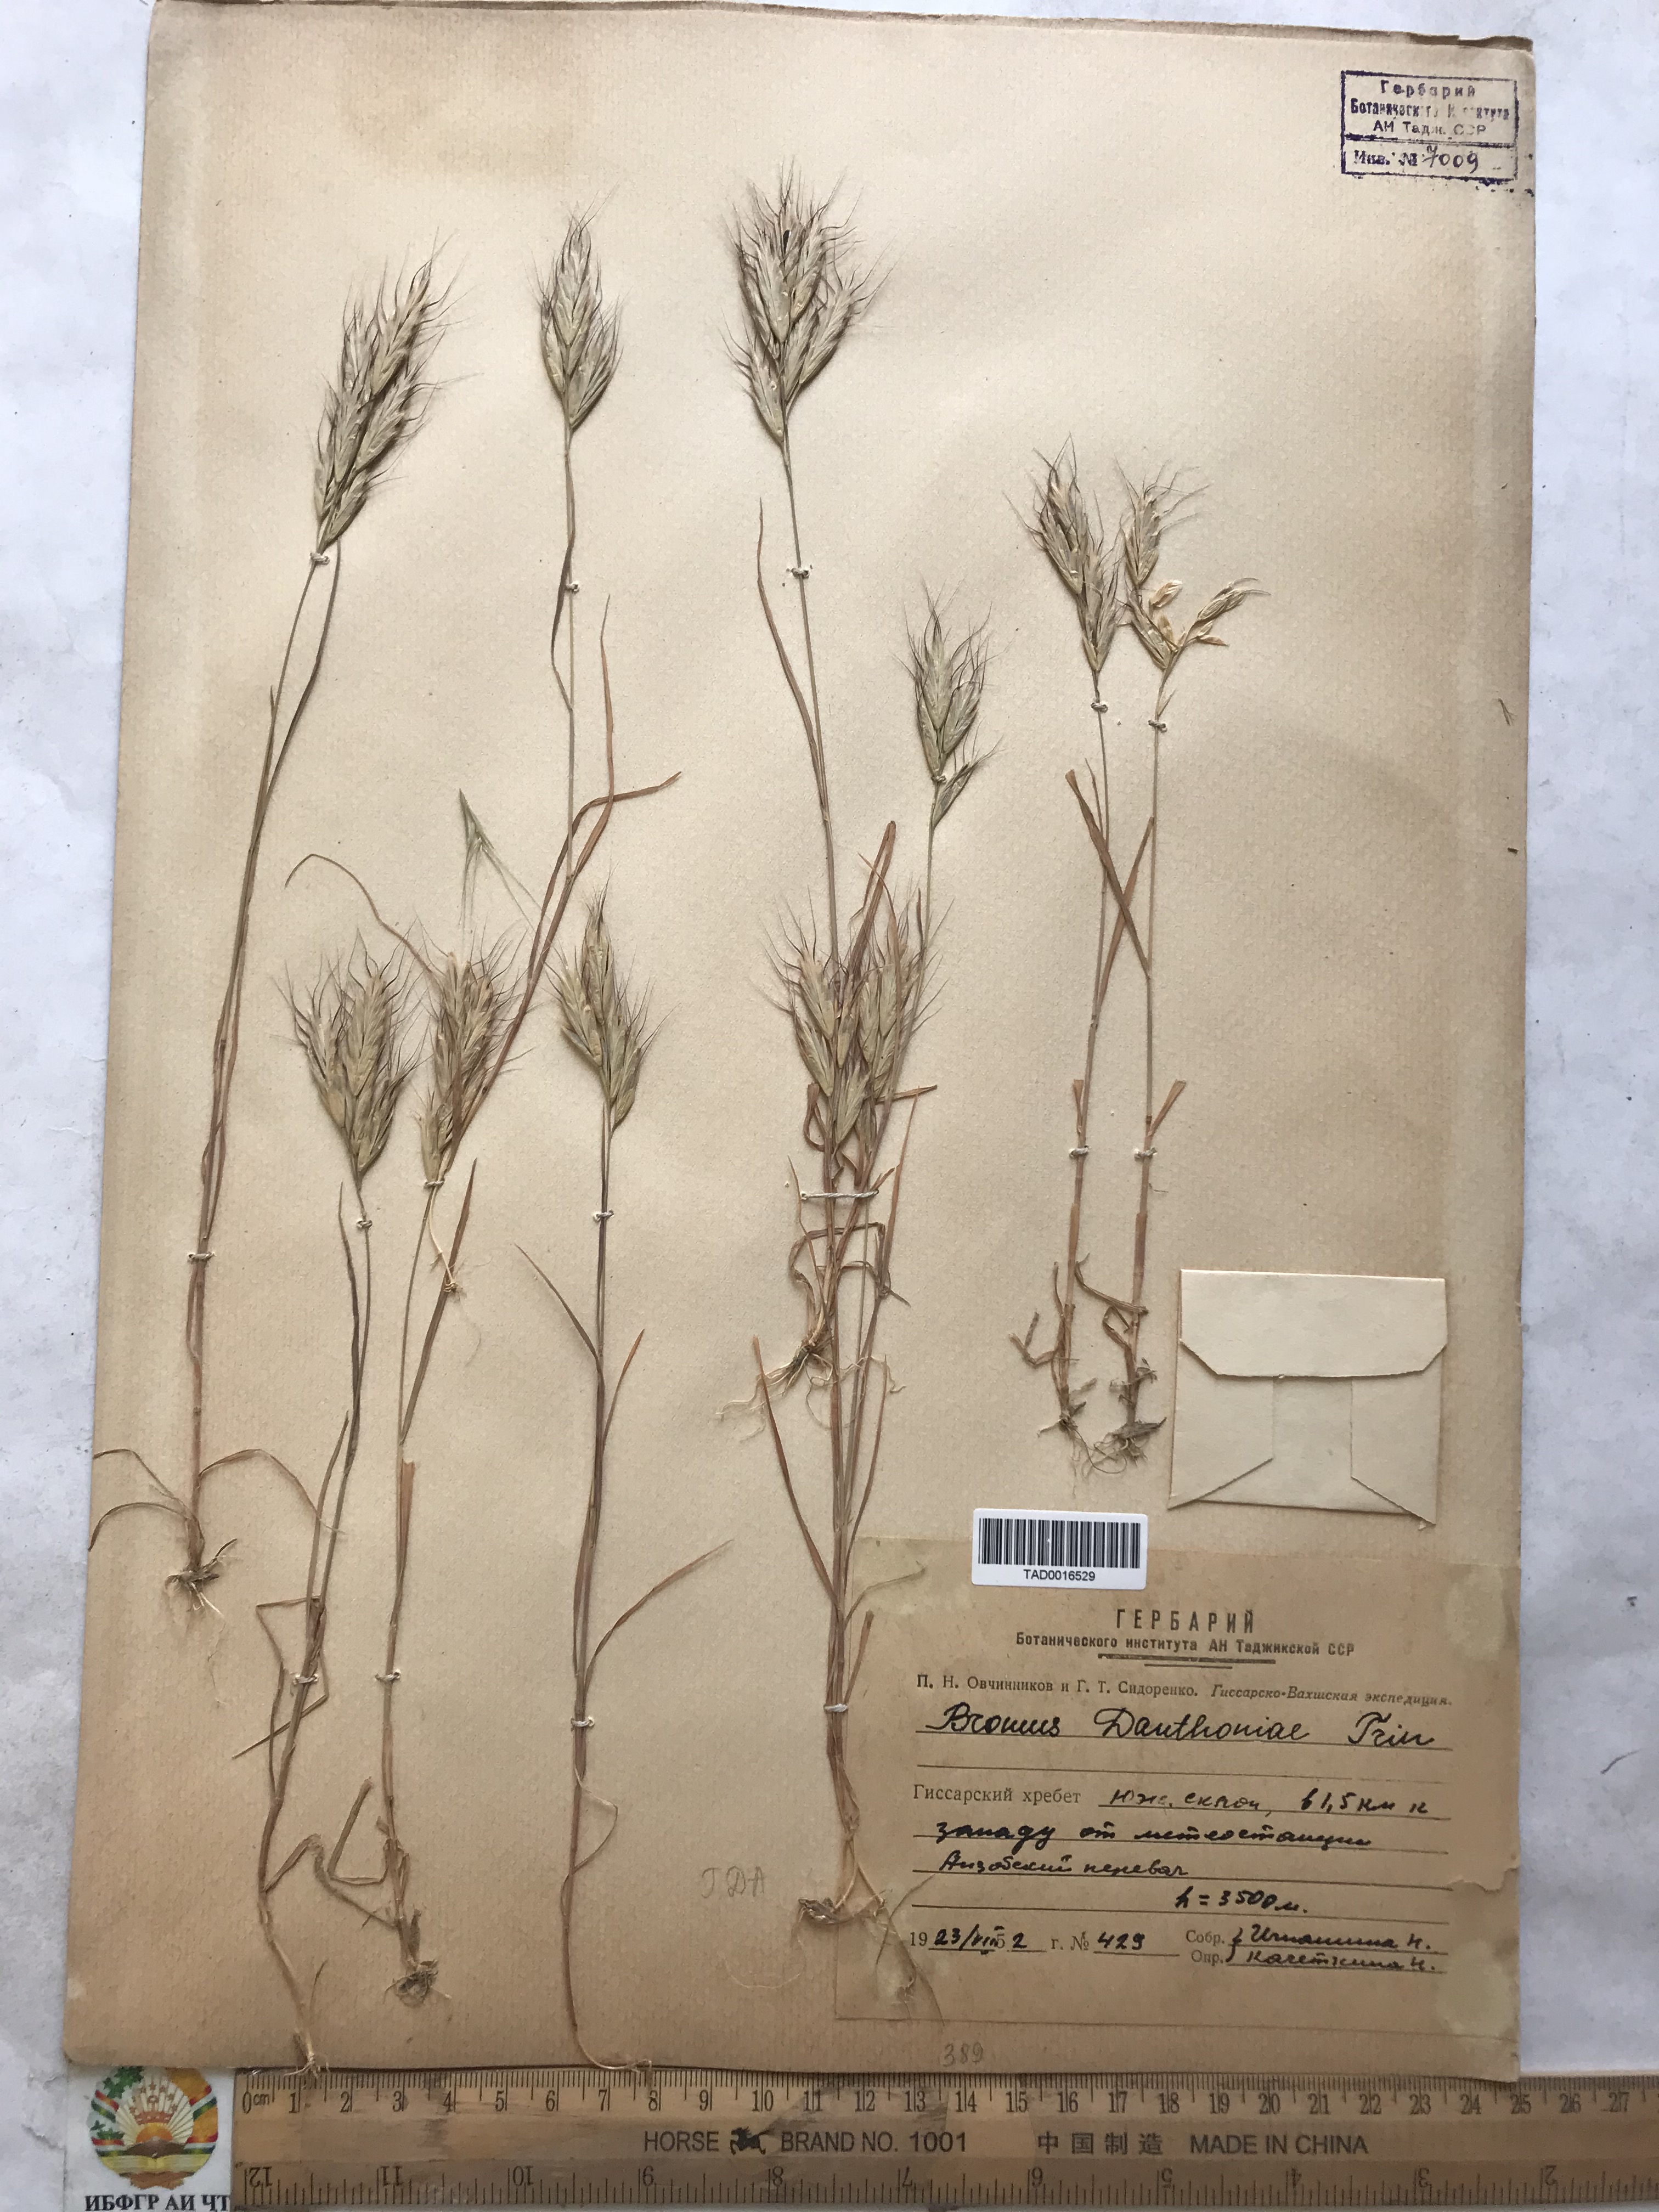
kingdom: Plantae
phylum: Tracheophyta
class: Liliopsida
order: Poales
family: Poaceae
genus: Bromus
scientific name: Bromus danthoniae
